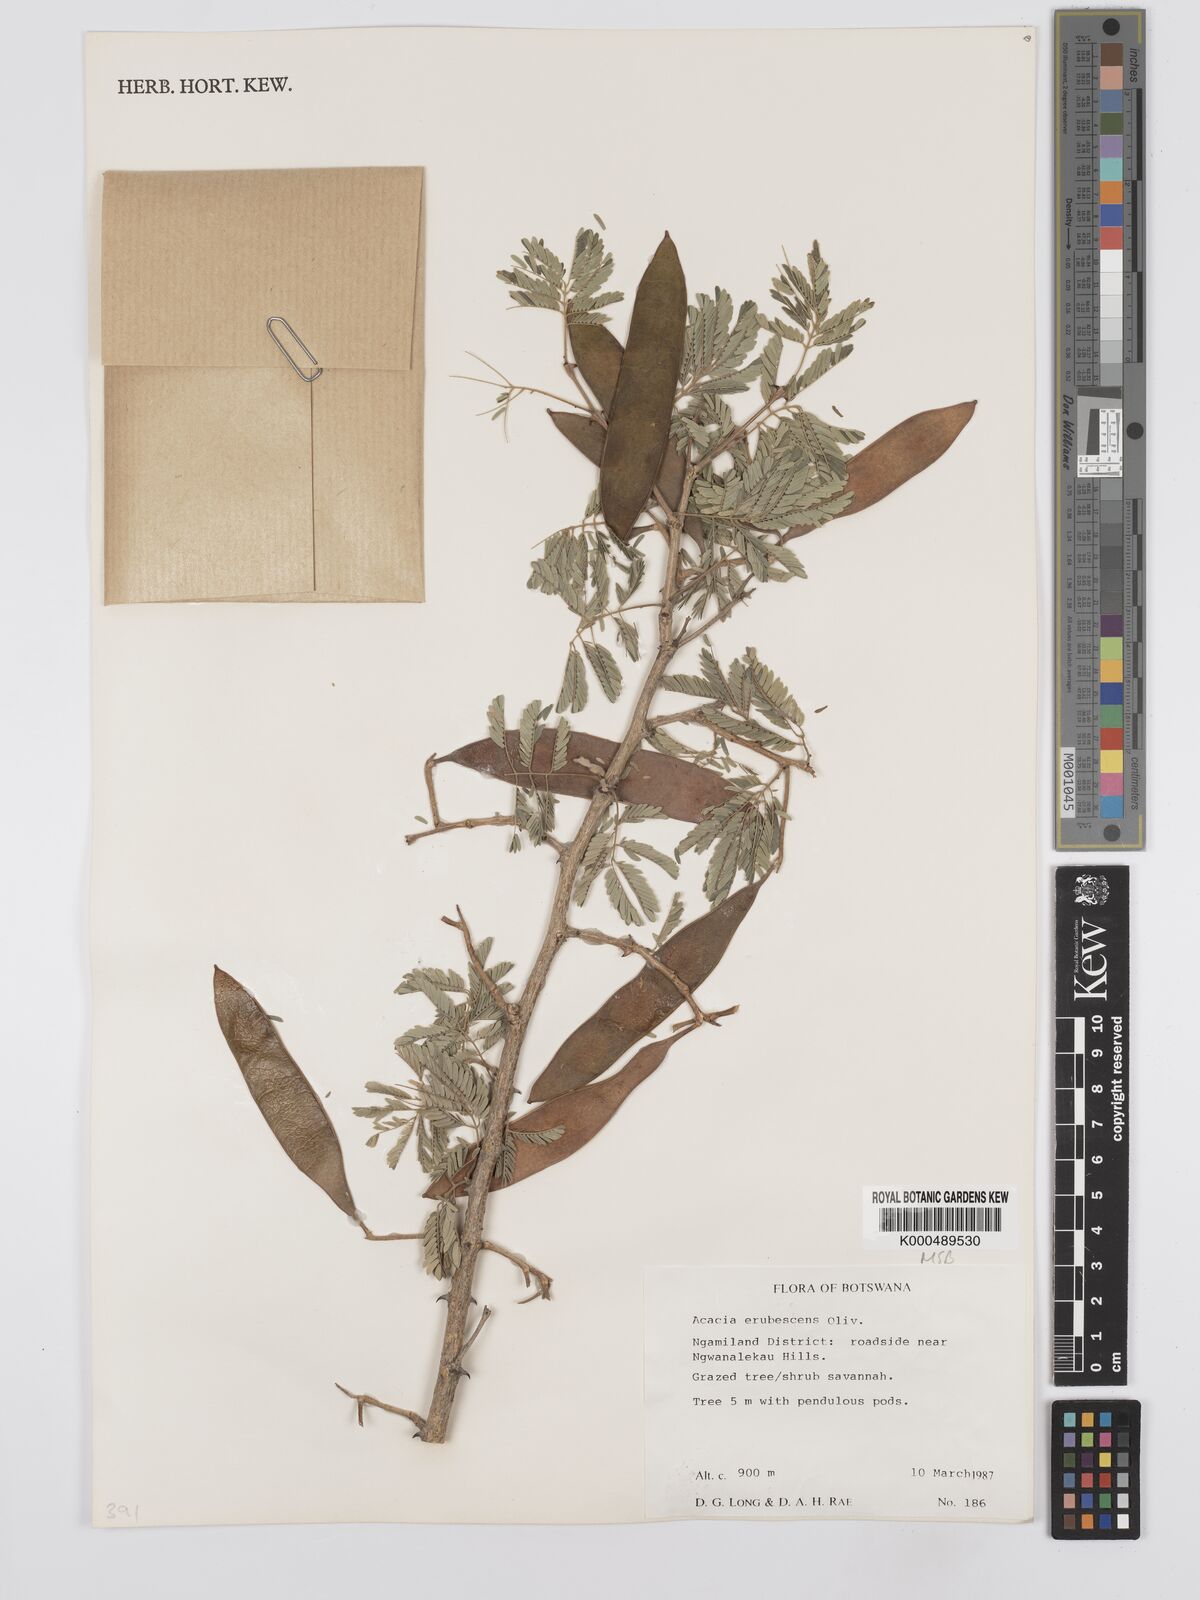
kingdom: Plantae
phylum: Tracheophyta
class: Magnoliopsida
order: Fabales
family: Fabaceae
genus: Senegalia
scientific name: Senegalia erubescens
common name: Bluethorn
